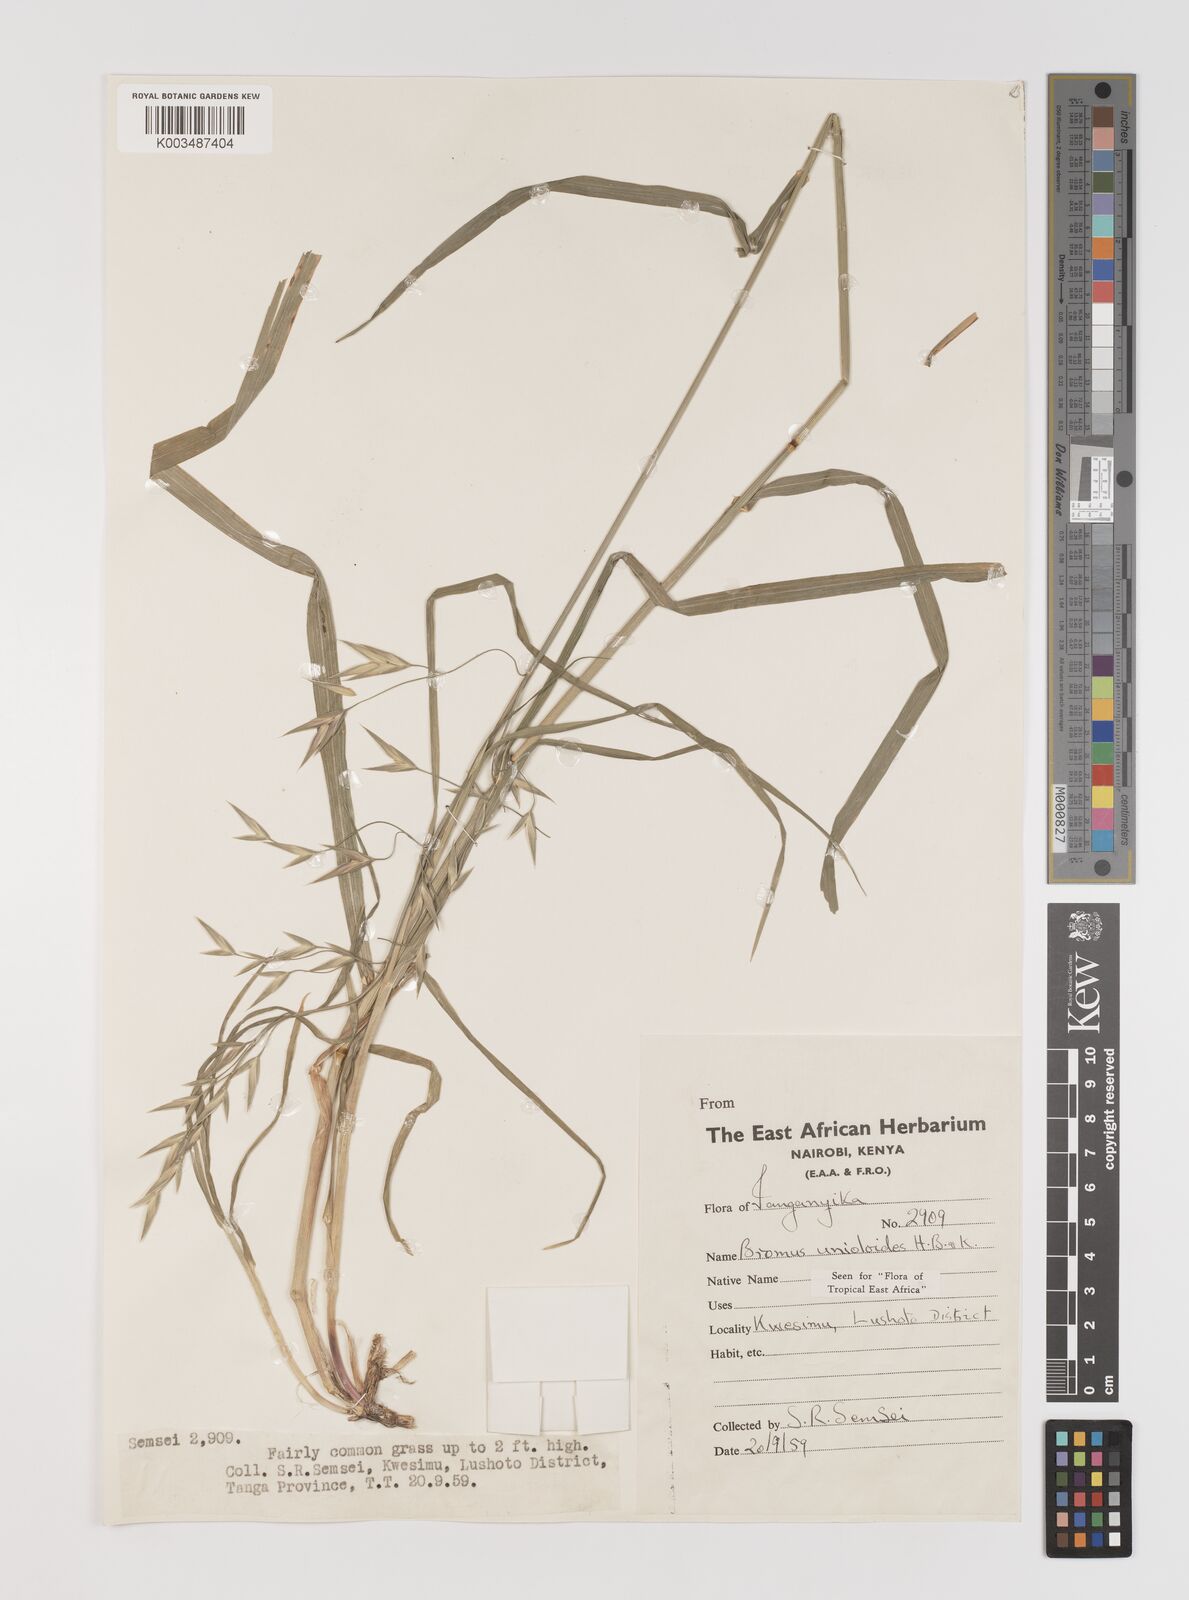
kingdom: Plantae
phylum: Tracheophyta
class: Liliopsida
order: Poales
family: Poaceae
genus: Bromus
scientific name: Bromus catharticus
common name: Rescuegrass
